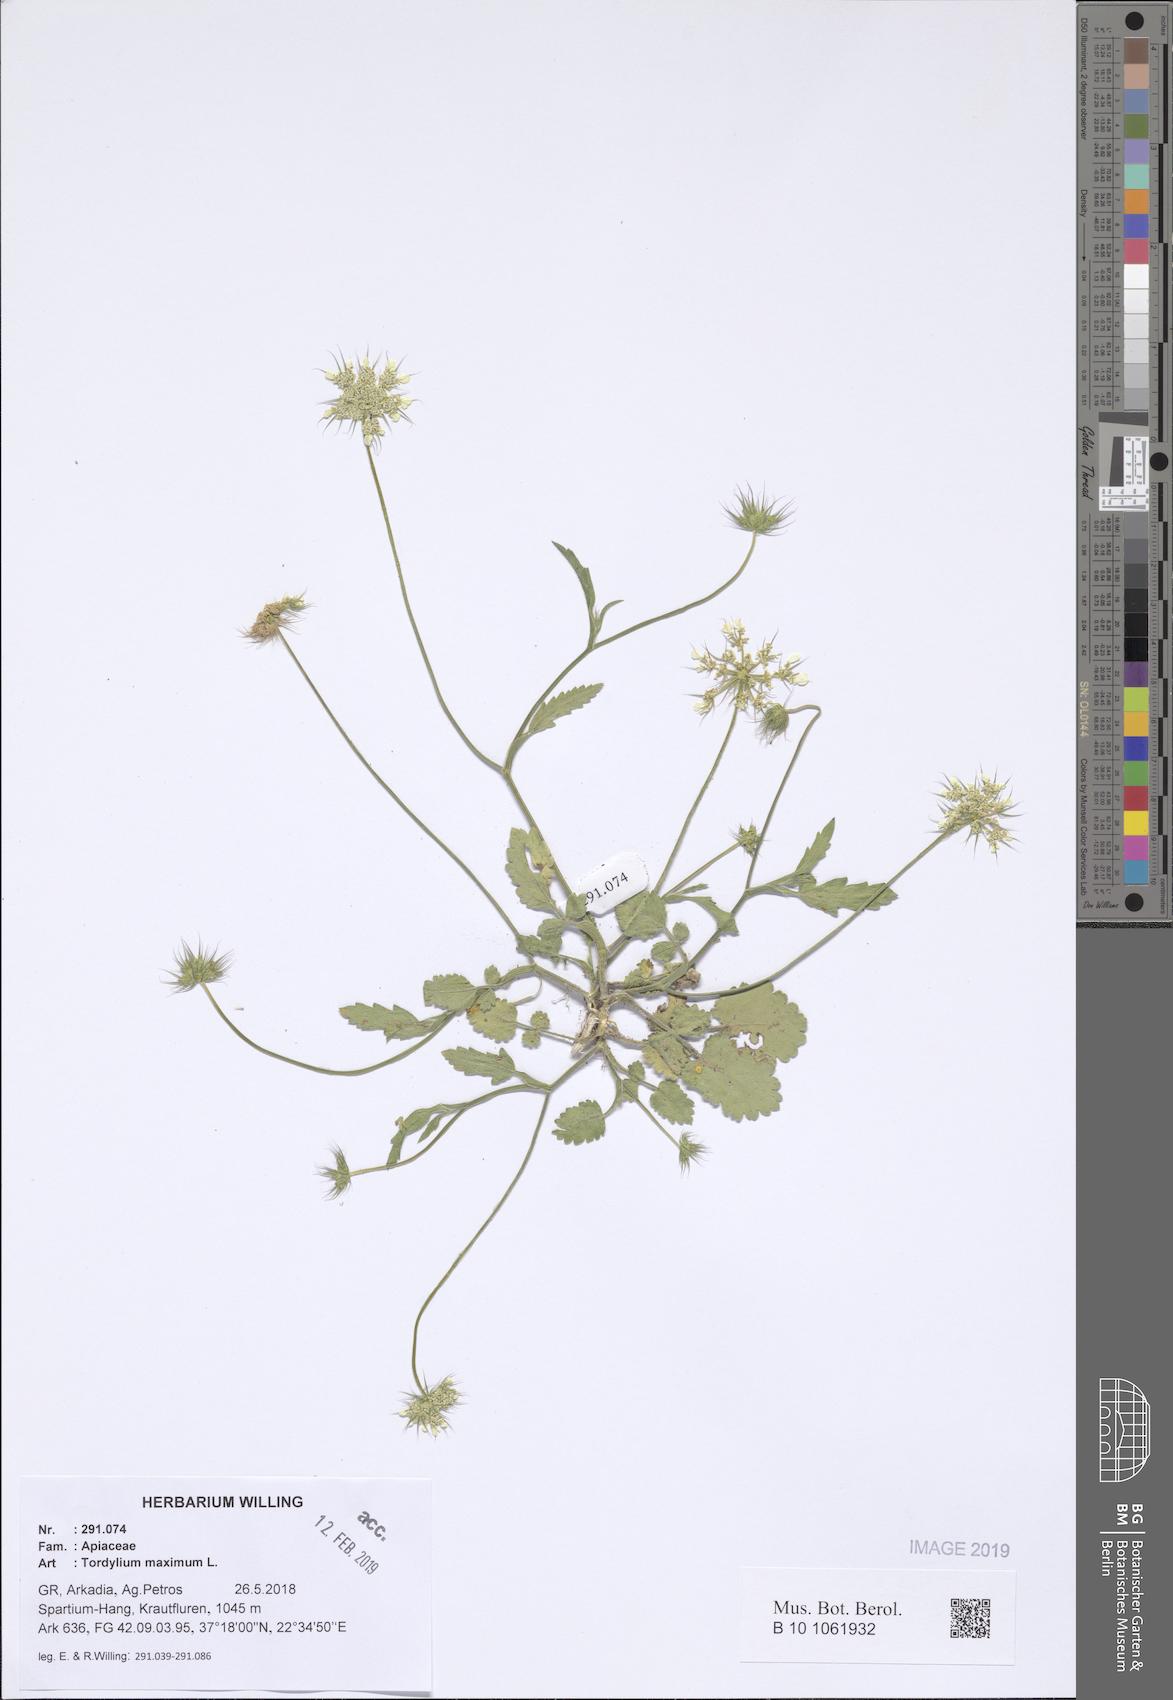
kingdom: Plantae
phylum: Tracheophyta
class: Magnoliopsida
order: Apiales
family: Apiaceae
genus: Tordylium
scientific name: Tordylium maximum
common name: Hartwort
